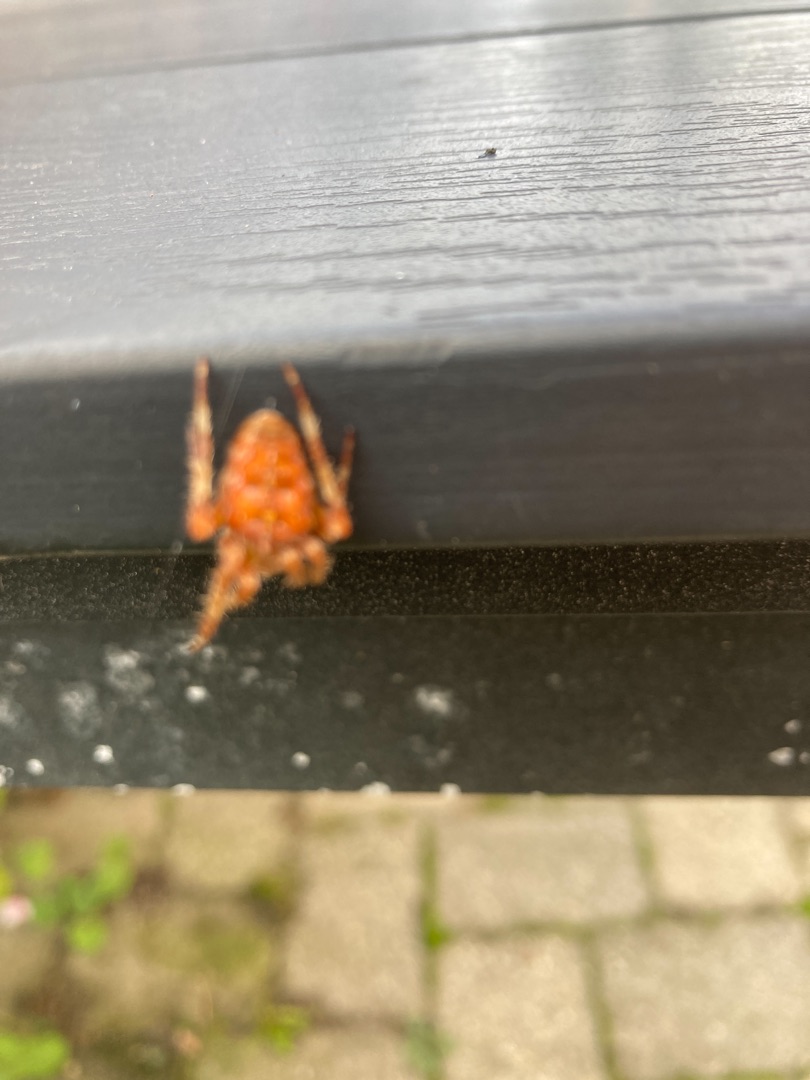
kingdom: Animalia
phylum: Arthropoda
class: Arachnida
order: Araneae
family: Araneidae
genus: Araneus
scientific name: Araneus diadematus
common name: Korsedderkop
